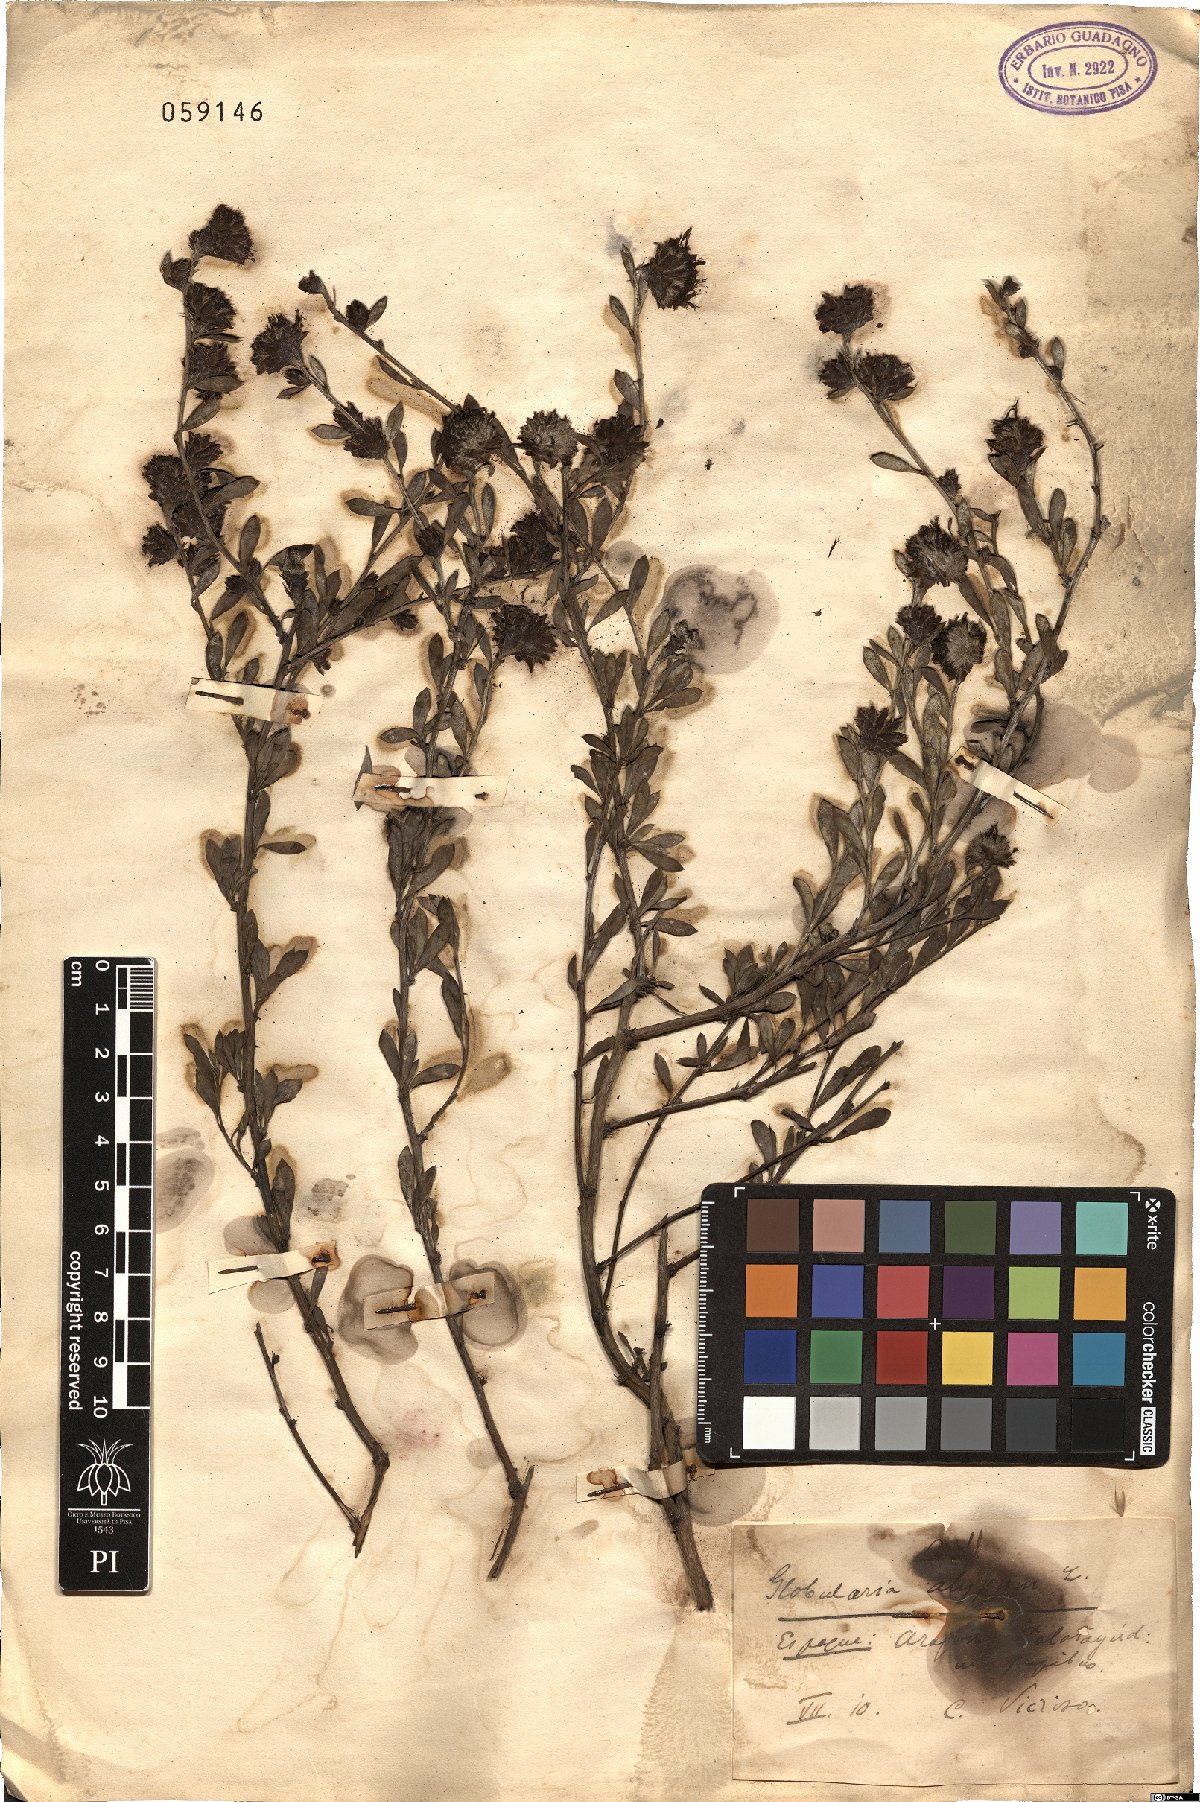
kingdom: Plantae
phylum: Tracheophyta
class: Magnoliopsida
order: Lamiales
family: Plantaginaceae
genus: Globularia
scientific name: Globularia alypum
